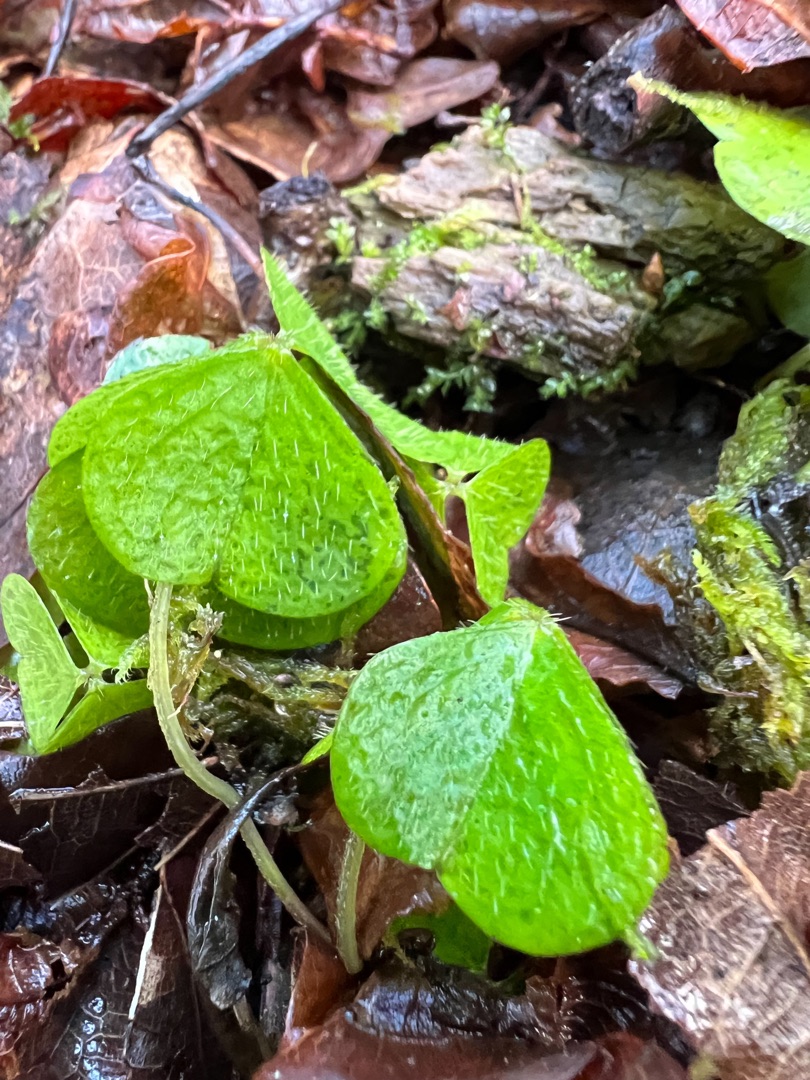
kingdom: Plantae
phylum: Tracheophyta
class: Magnoliopsida
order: Oxalidales
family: Oxalidaceae
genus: Oxalis
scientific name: Oxalis acetosella
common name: Skovsyre
